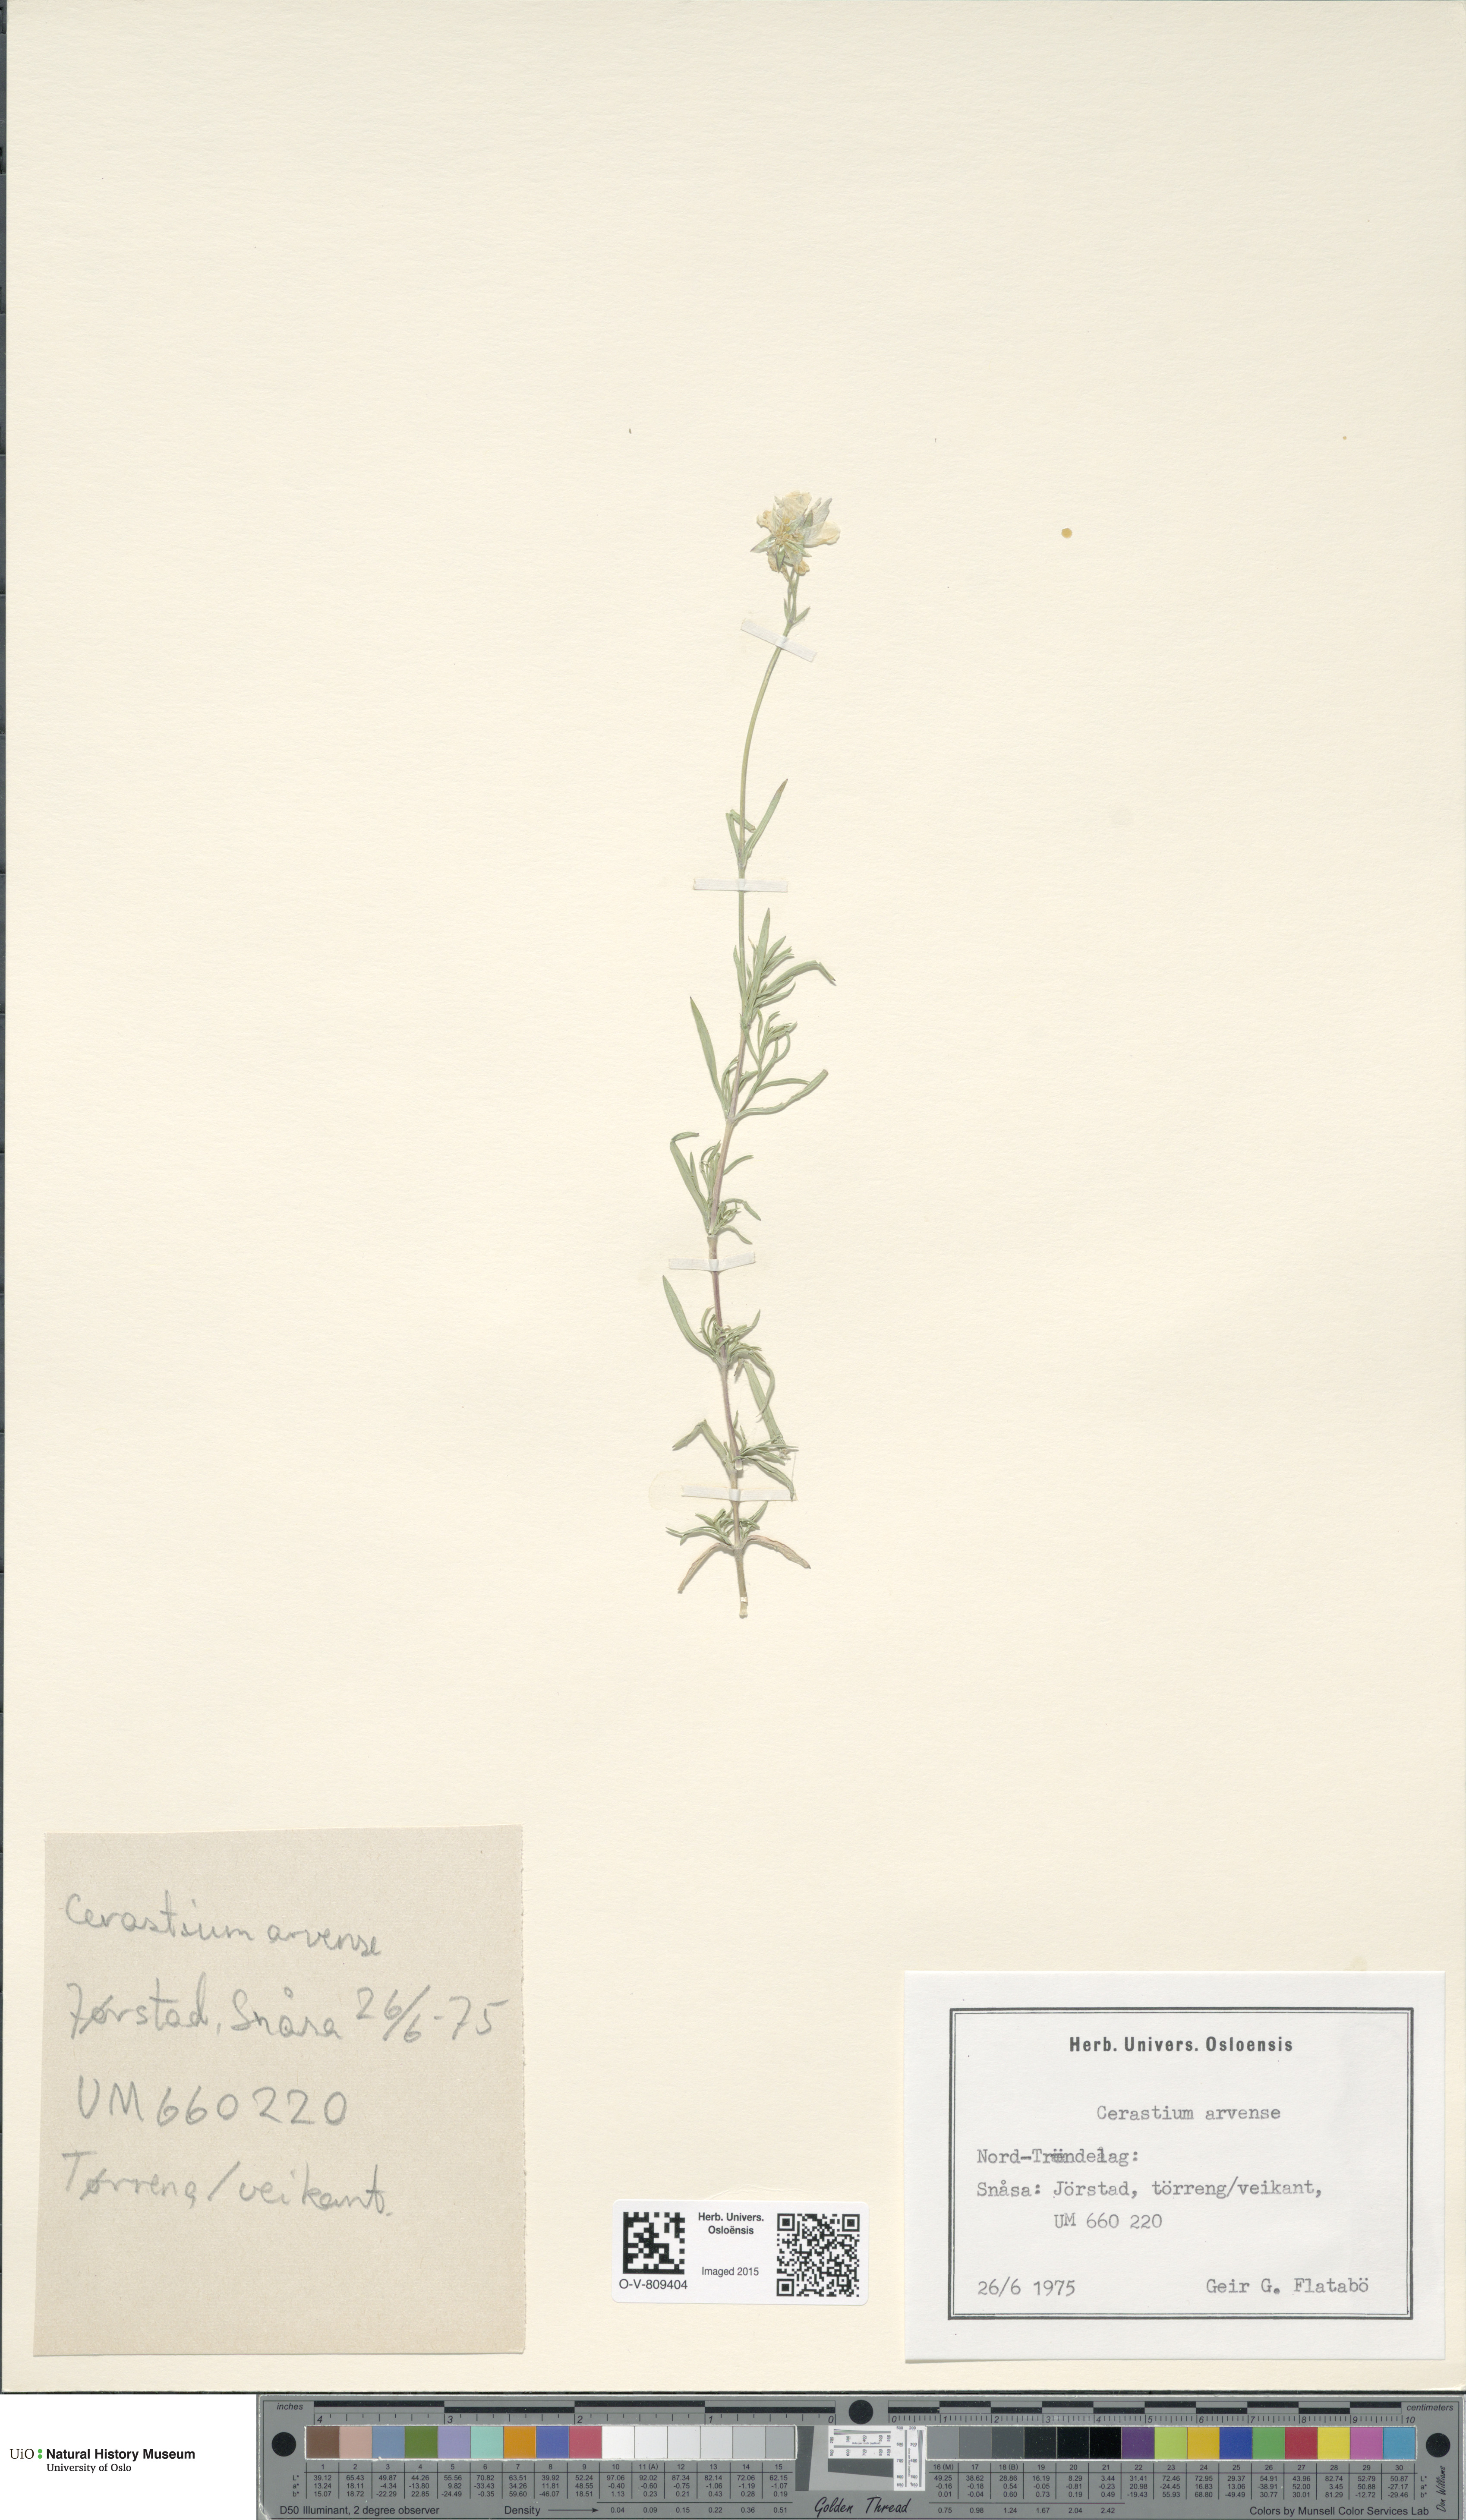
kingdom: Plantae
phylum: Tracheophyta
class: Magnoliopsida
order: Caryophyllales
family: Caryophyllaceae
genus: Cerastium
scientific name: Cerastium arvense
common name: Field mouse-ear
